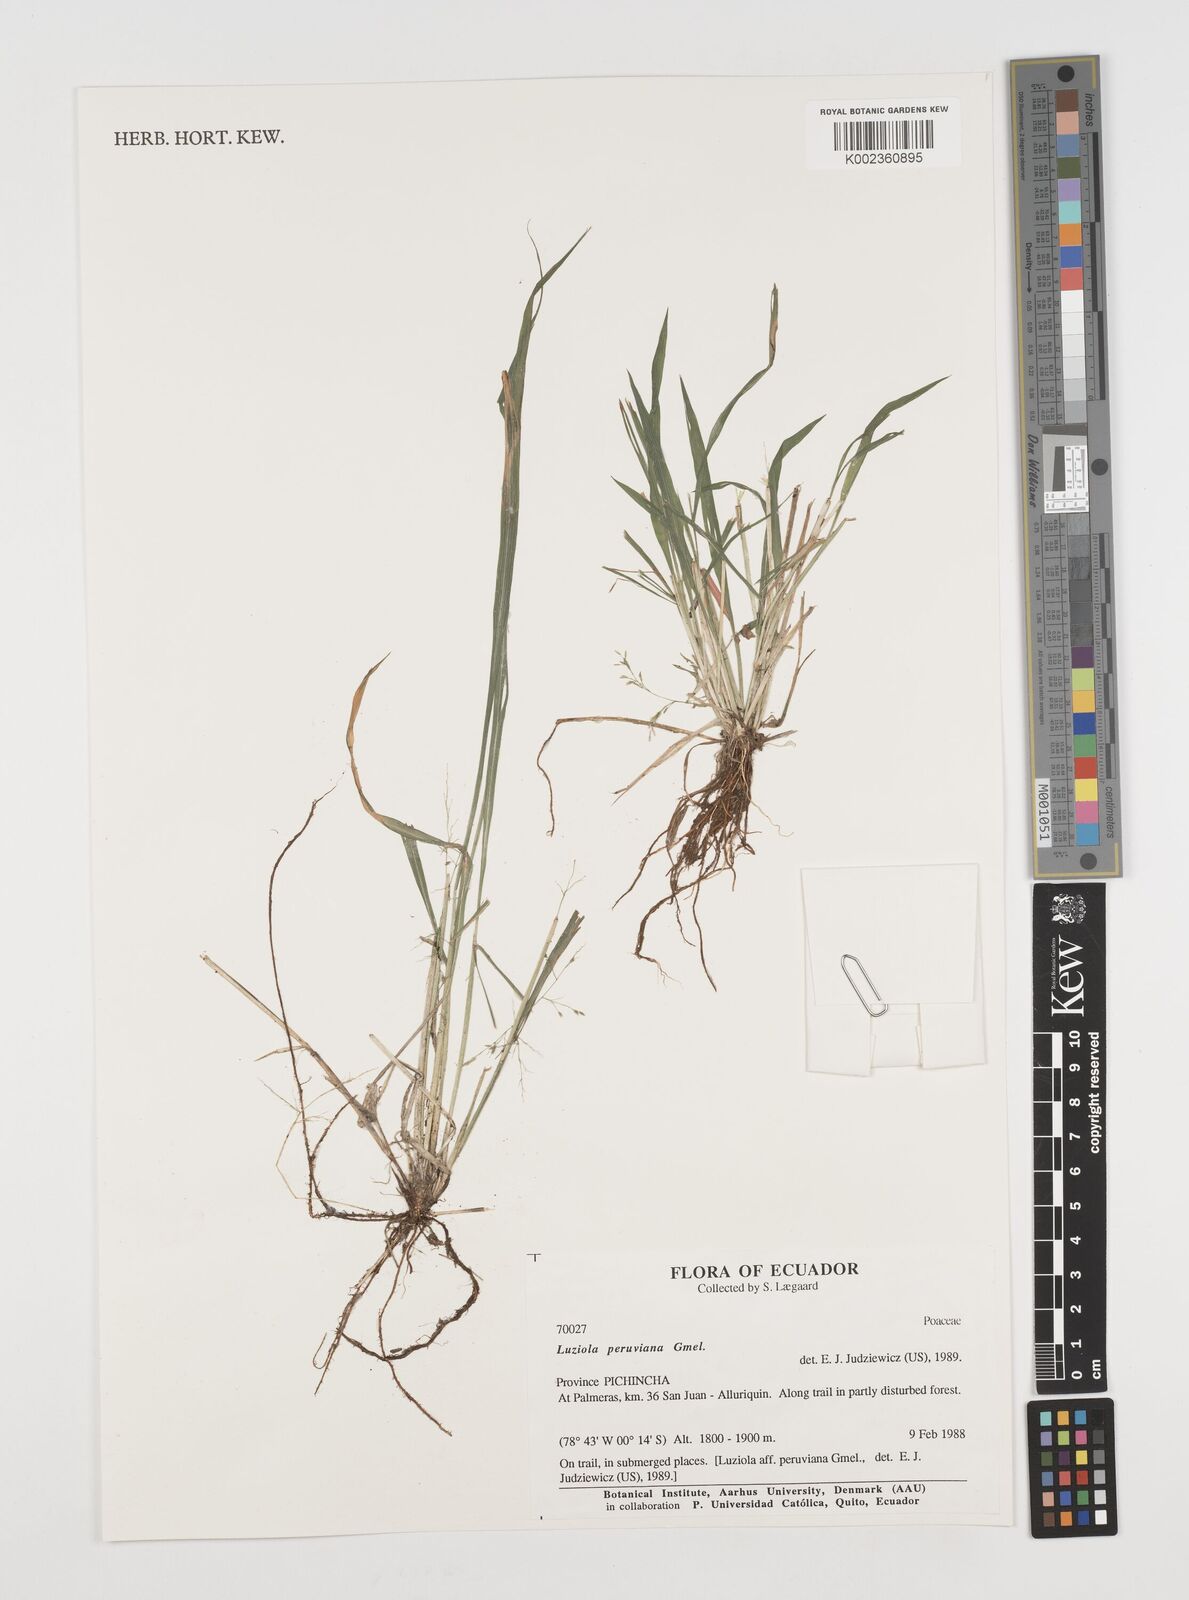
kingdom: Plantae
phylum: Tracheophyta
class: Liliopsida
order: Poales
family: Poaceae
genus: Luziola
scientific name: Luziola peruviana
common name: Peruvian watergrass
